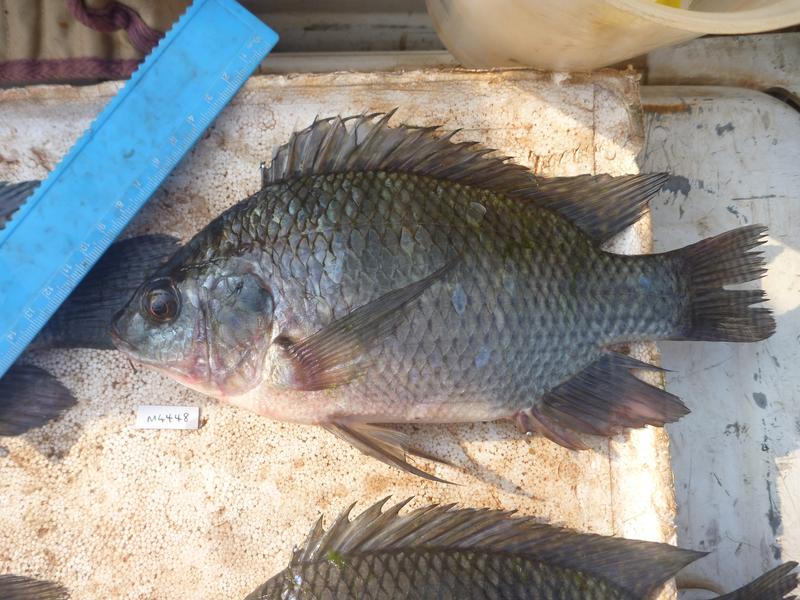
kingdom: Animalia
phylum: Chordata
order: Perciformes
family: Cichlidae
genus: Oreochromis
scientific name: Oreochromis niloticus
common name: Nile tilapia
